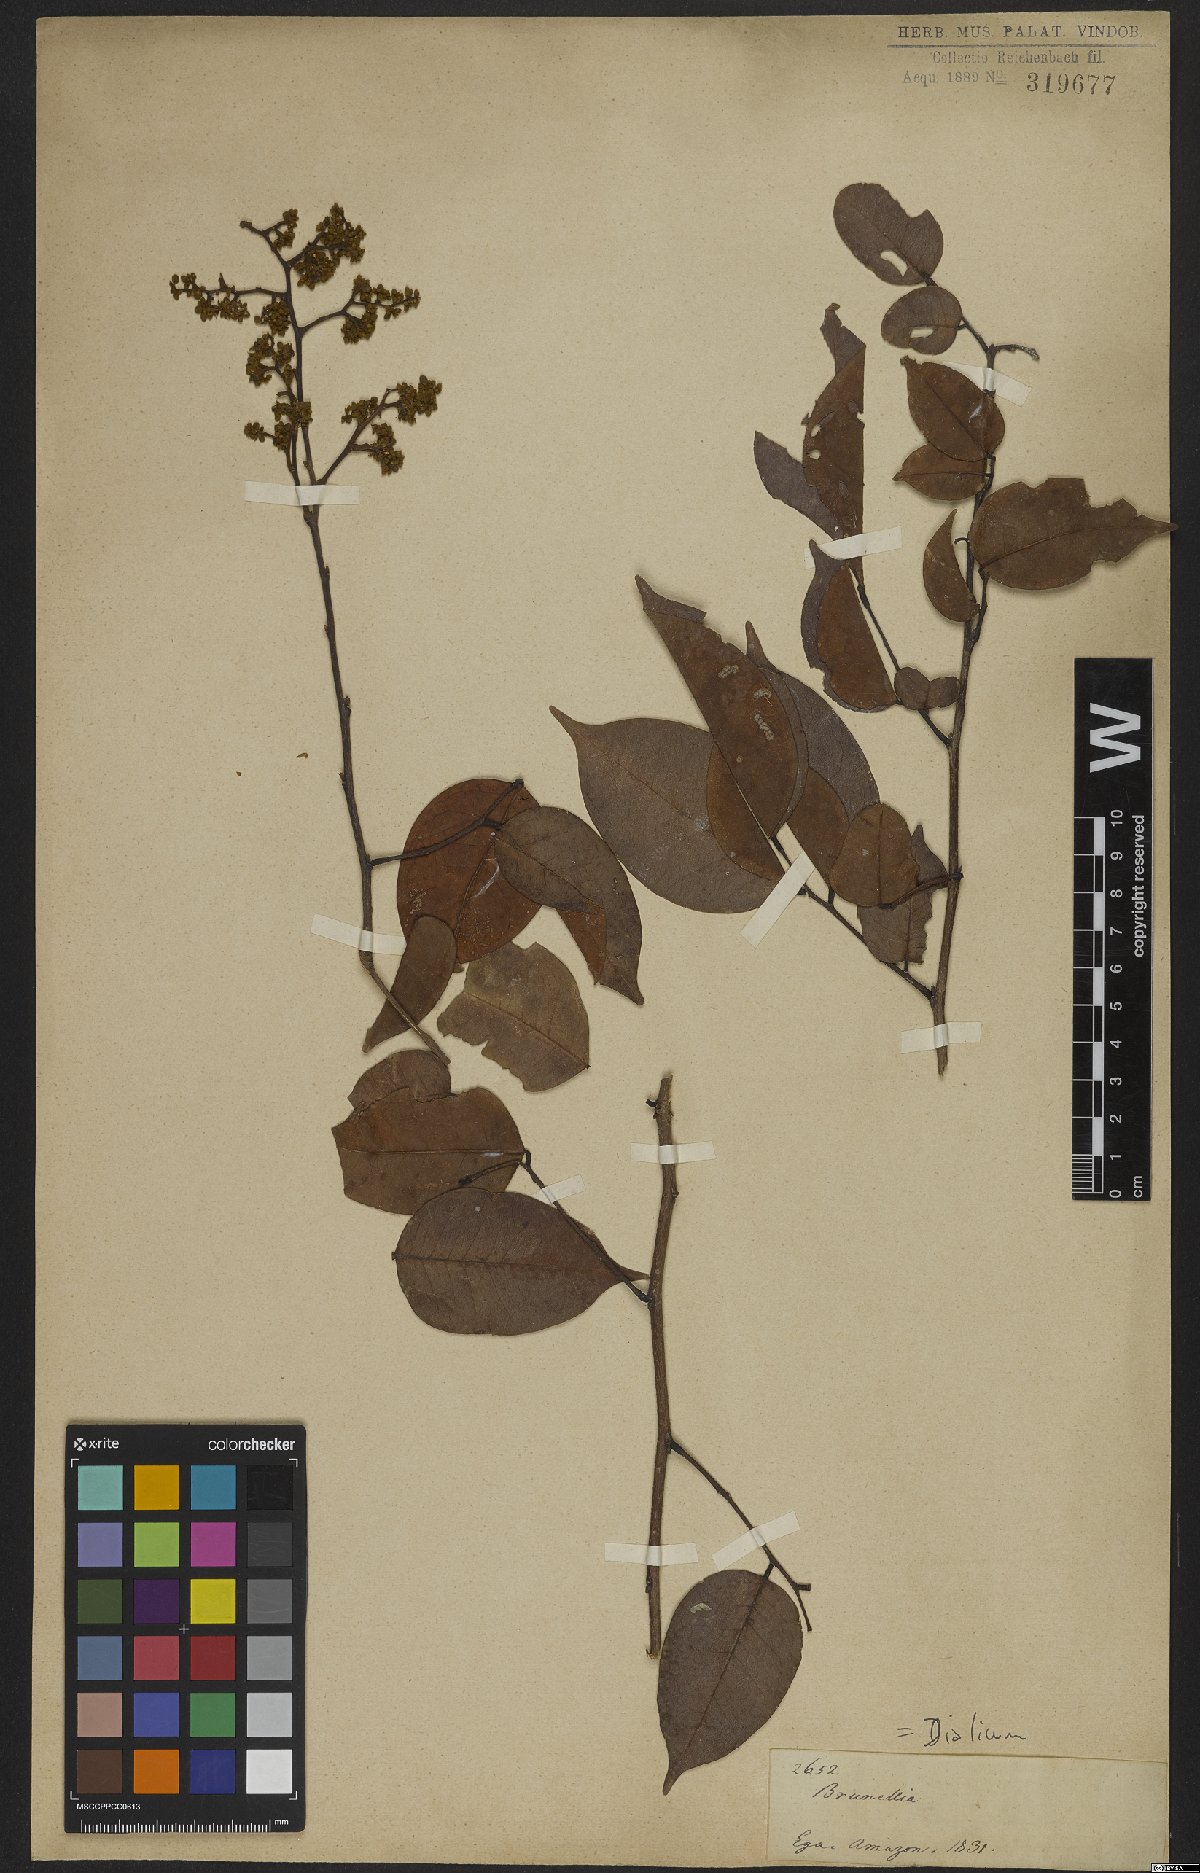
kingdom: Plantae
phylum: Tracheophyta
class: Magnoliopsida
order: Fabales
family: Fabaceae
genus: Dialium
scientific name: Dialium
